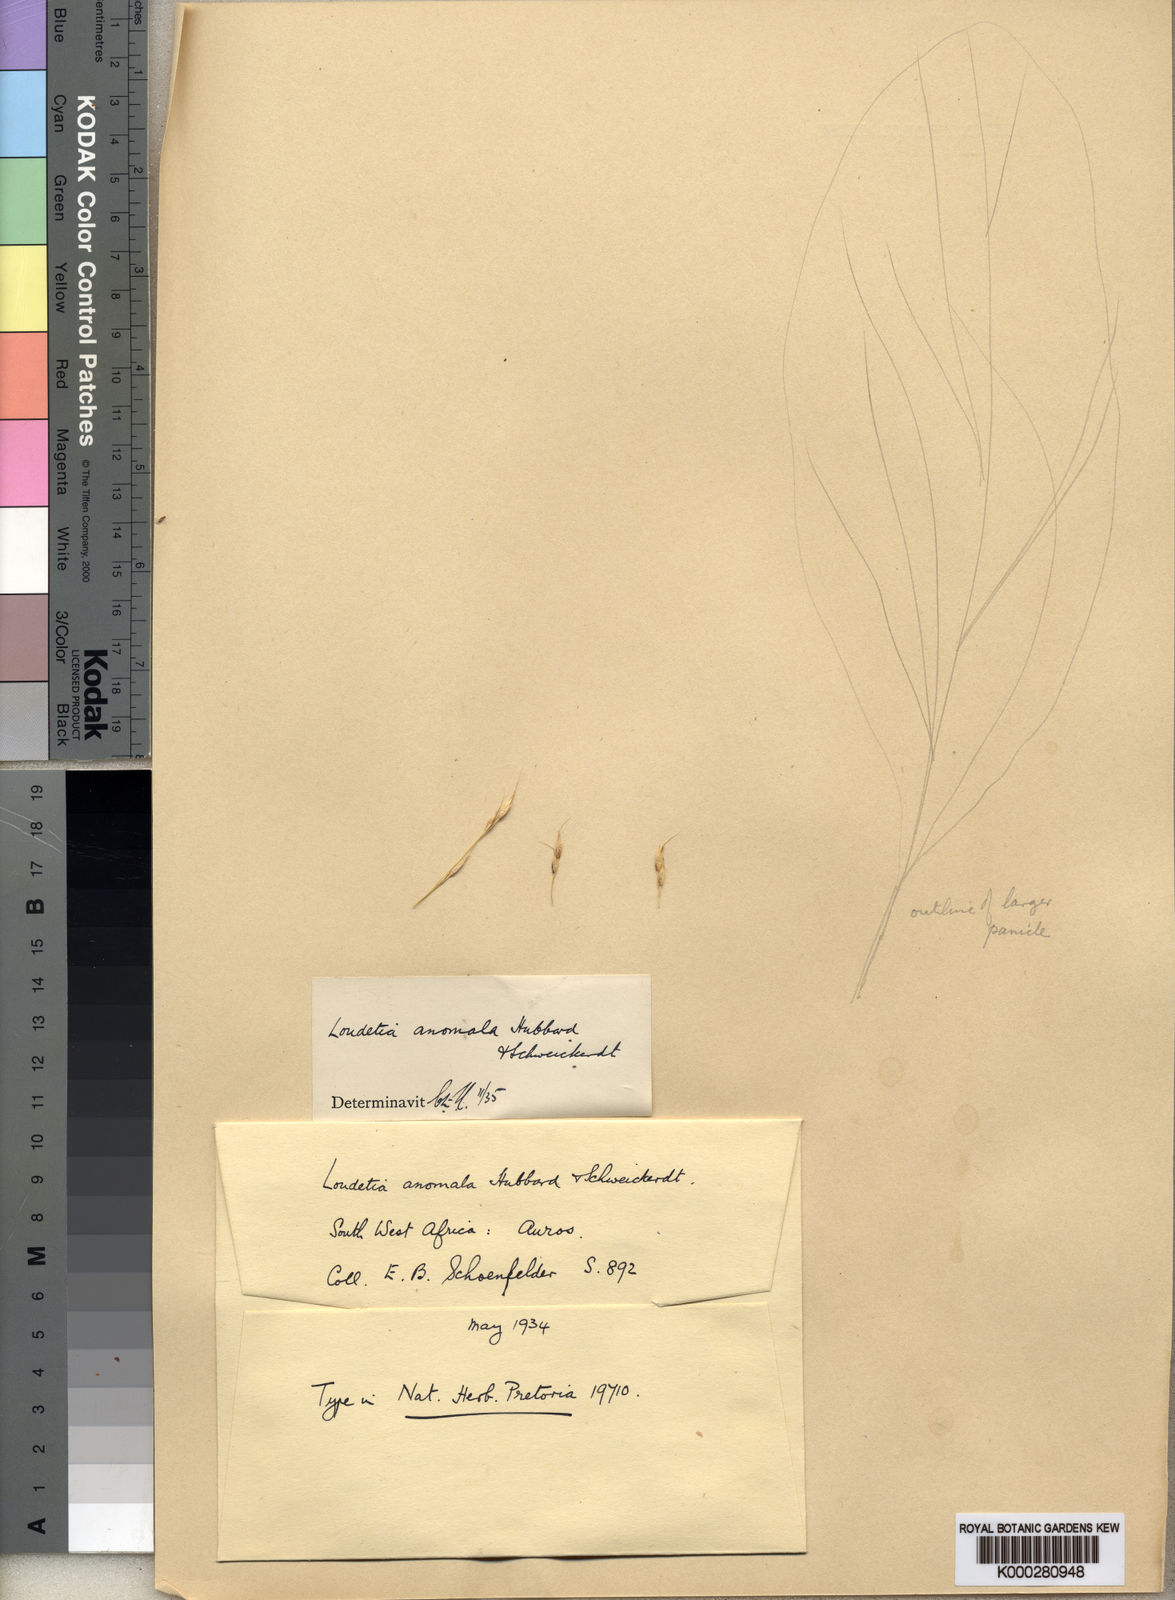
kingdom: Plantae
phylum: Tracheophyta
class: Liliopsida
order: Poales
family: Poaceae
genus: Danthoniopsis
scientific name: Danthoniopsis ramosa
